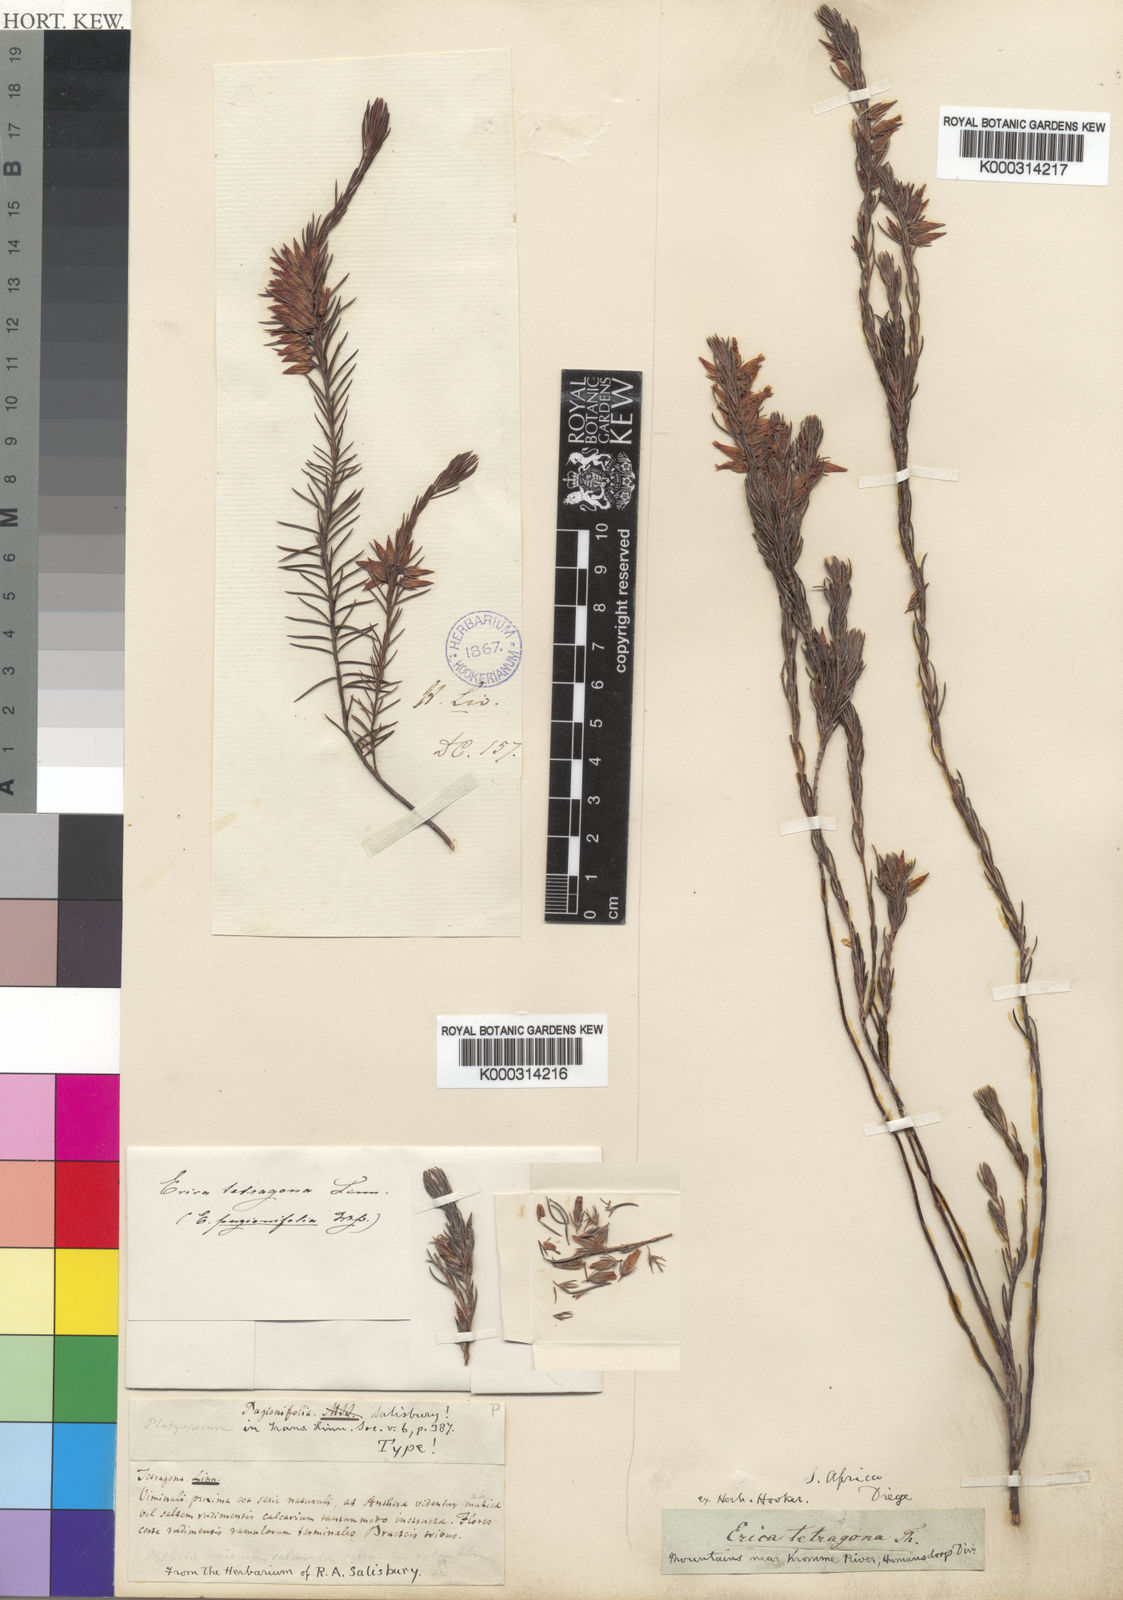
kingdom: Plantae
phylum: Tracheophyta
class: Magnoliopsida
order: Ericales
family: Ericaceae
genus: Erica
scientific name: Erica tetragona
